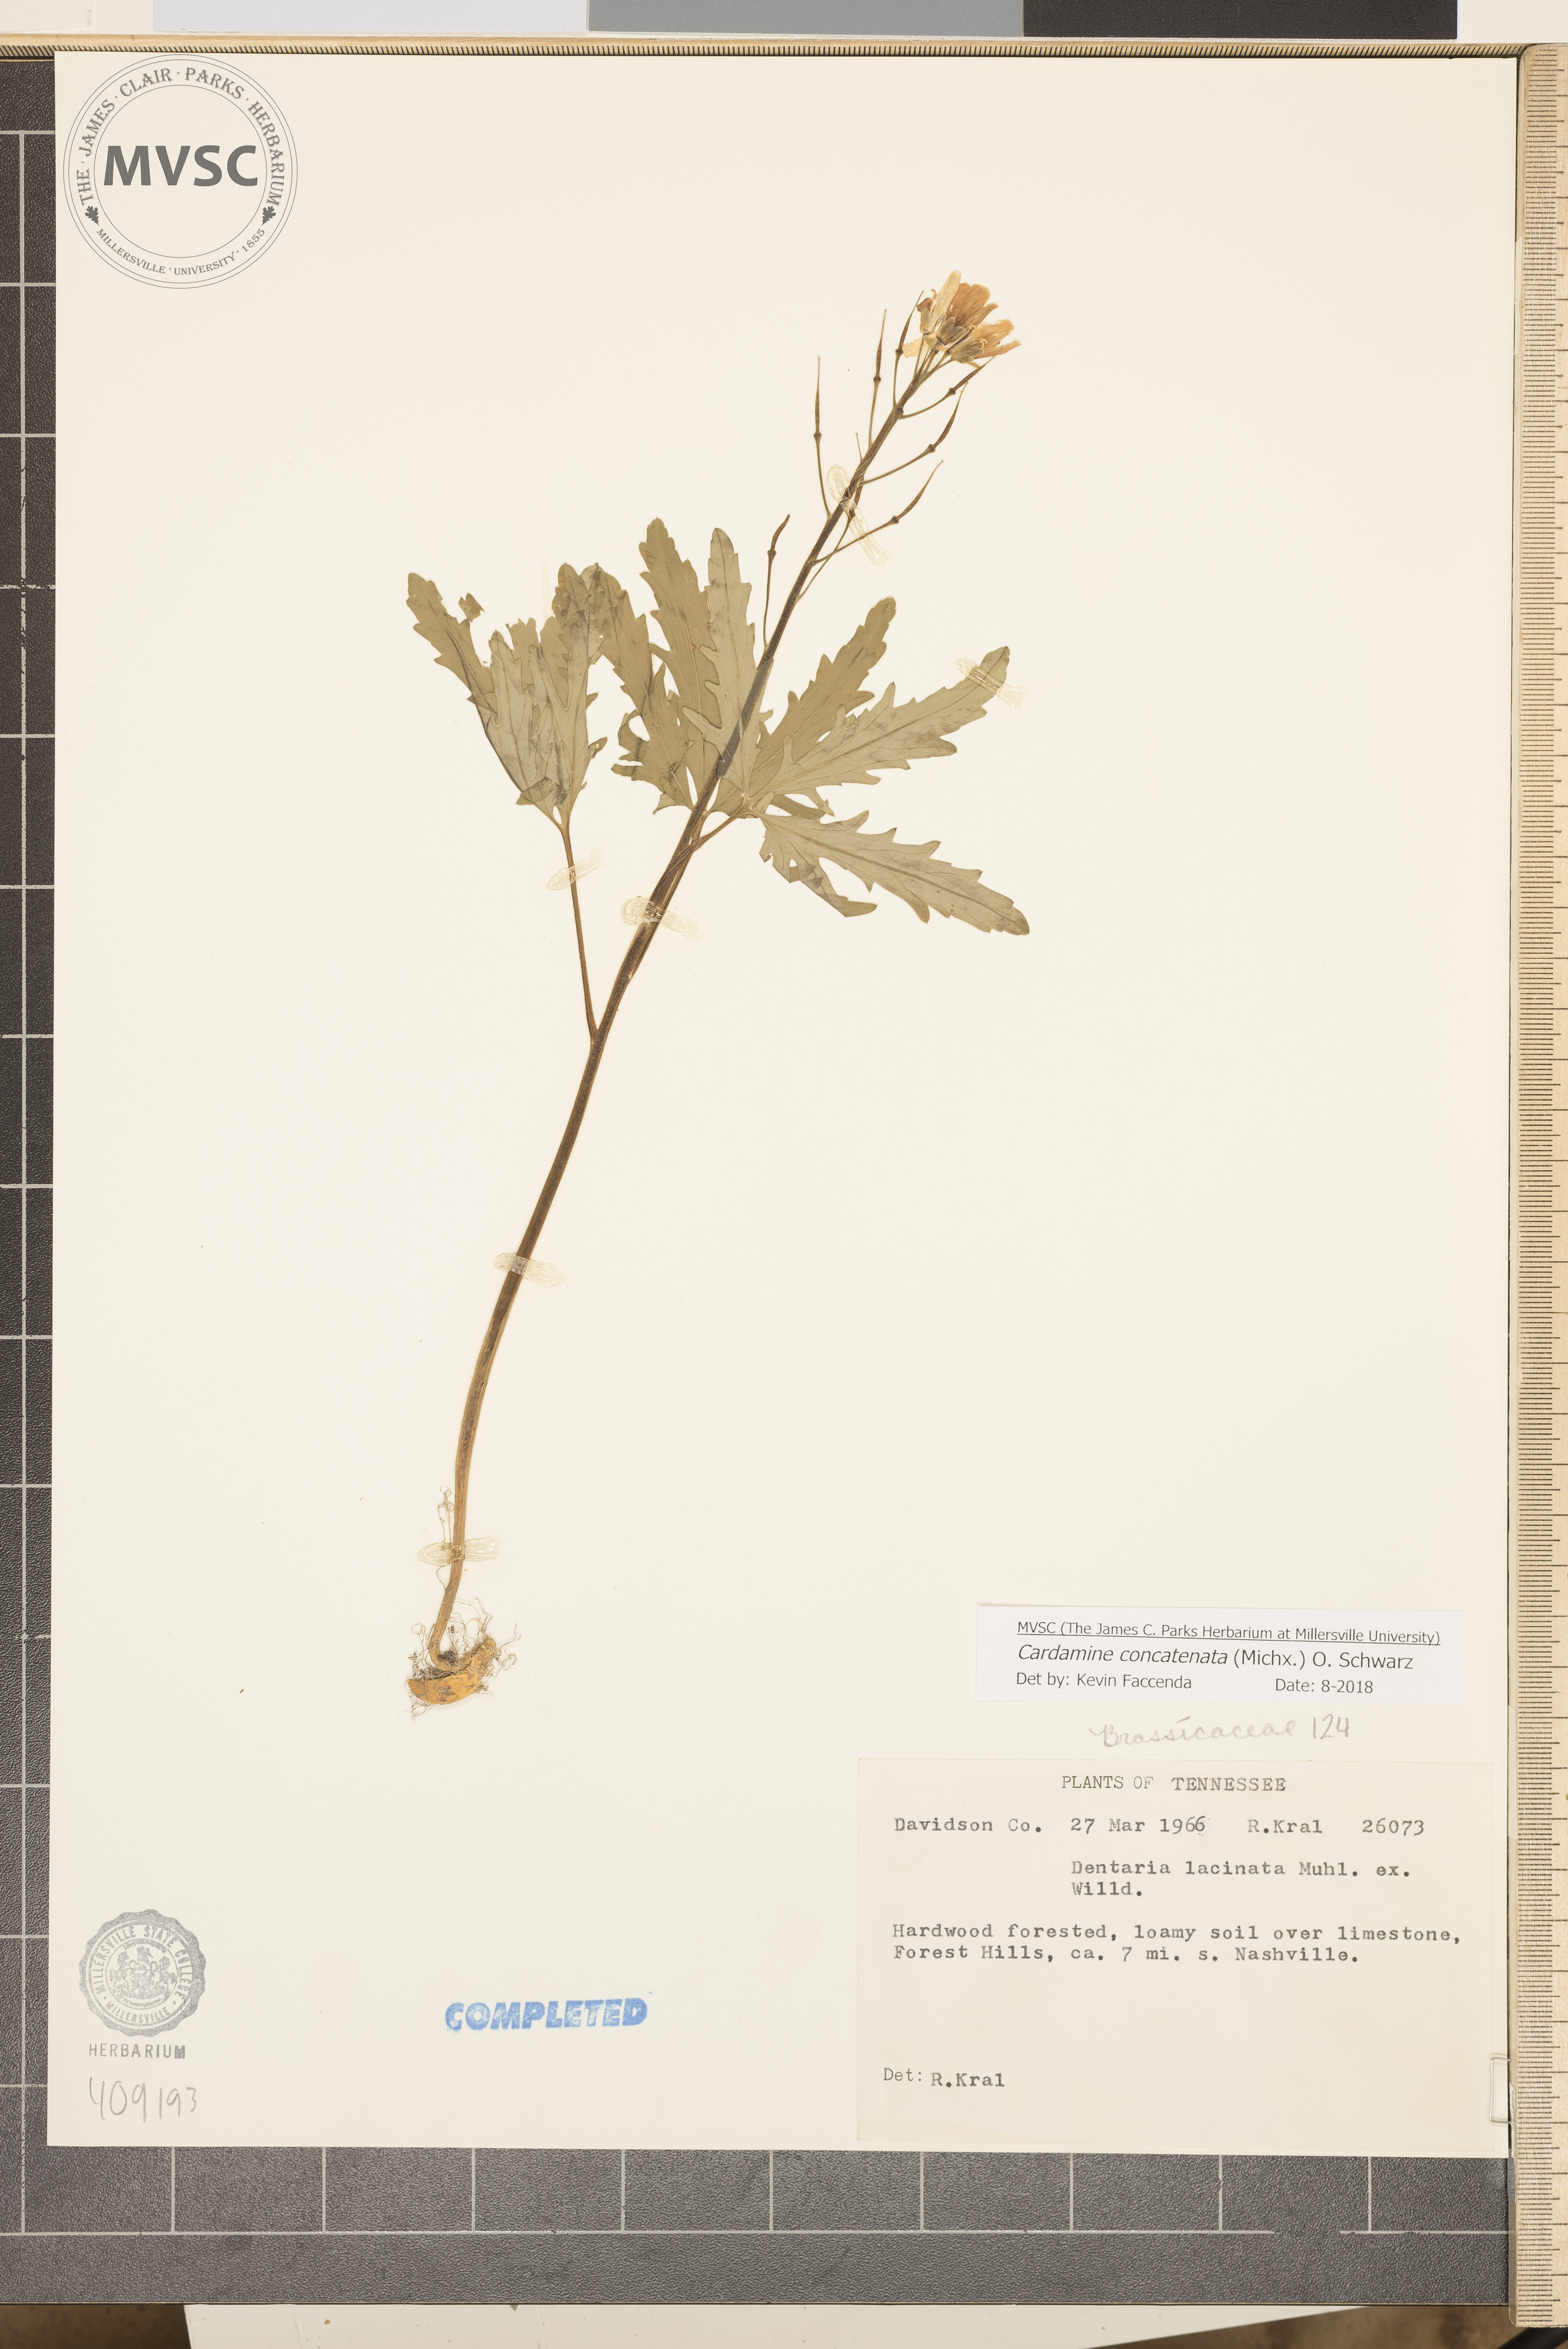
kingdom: Plantae
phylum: Tracheophyta
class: Magnoliopsida
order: Brassicales
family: Brassicaceae
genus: Cardamine
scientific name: Cardamine concatenata
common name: Cut-leaf toothcup
